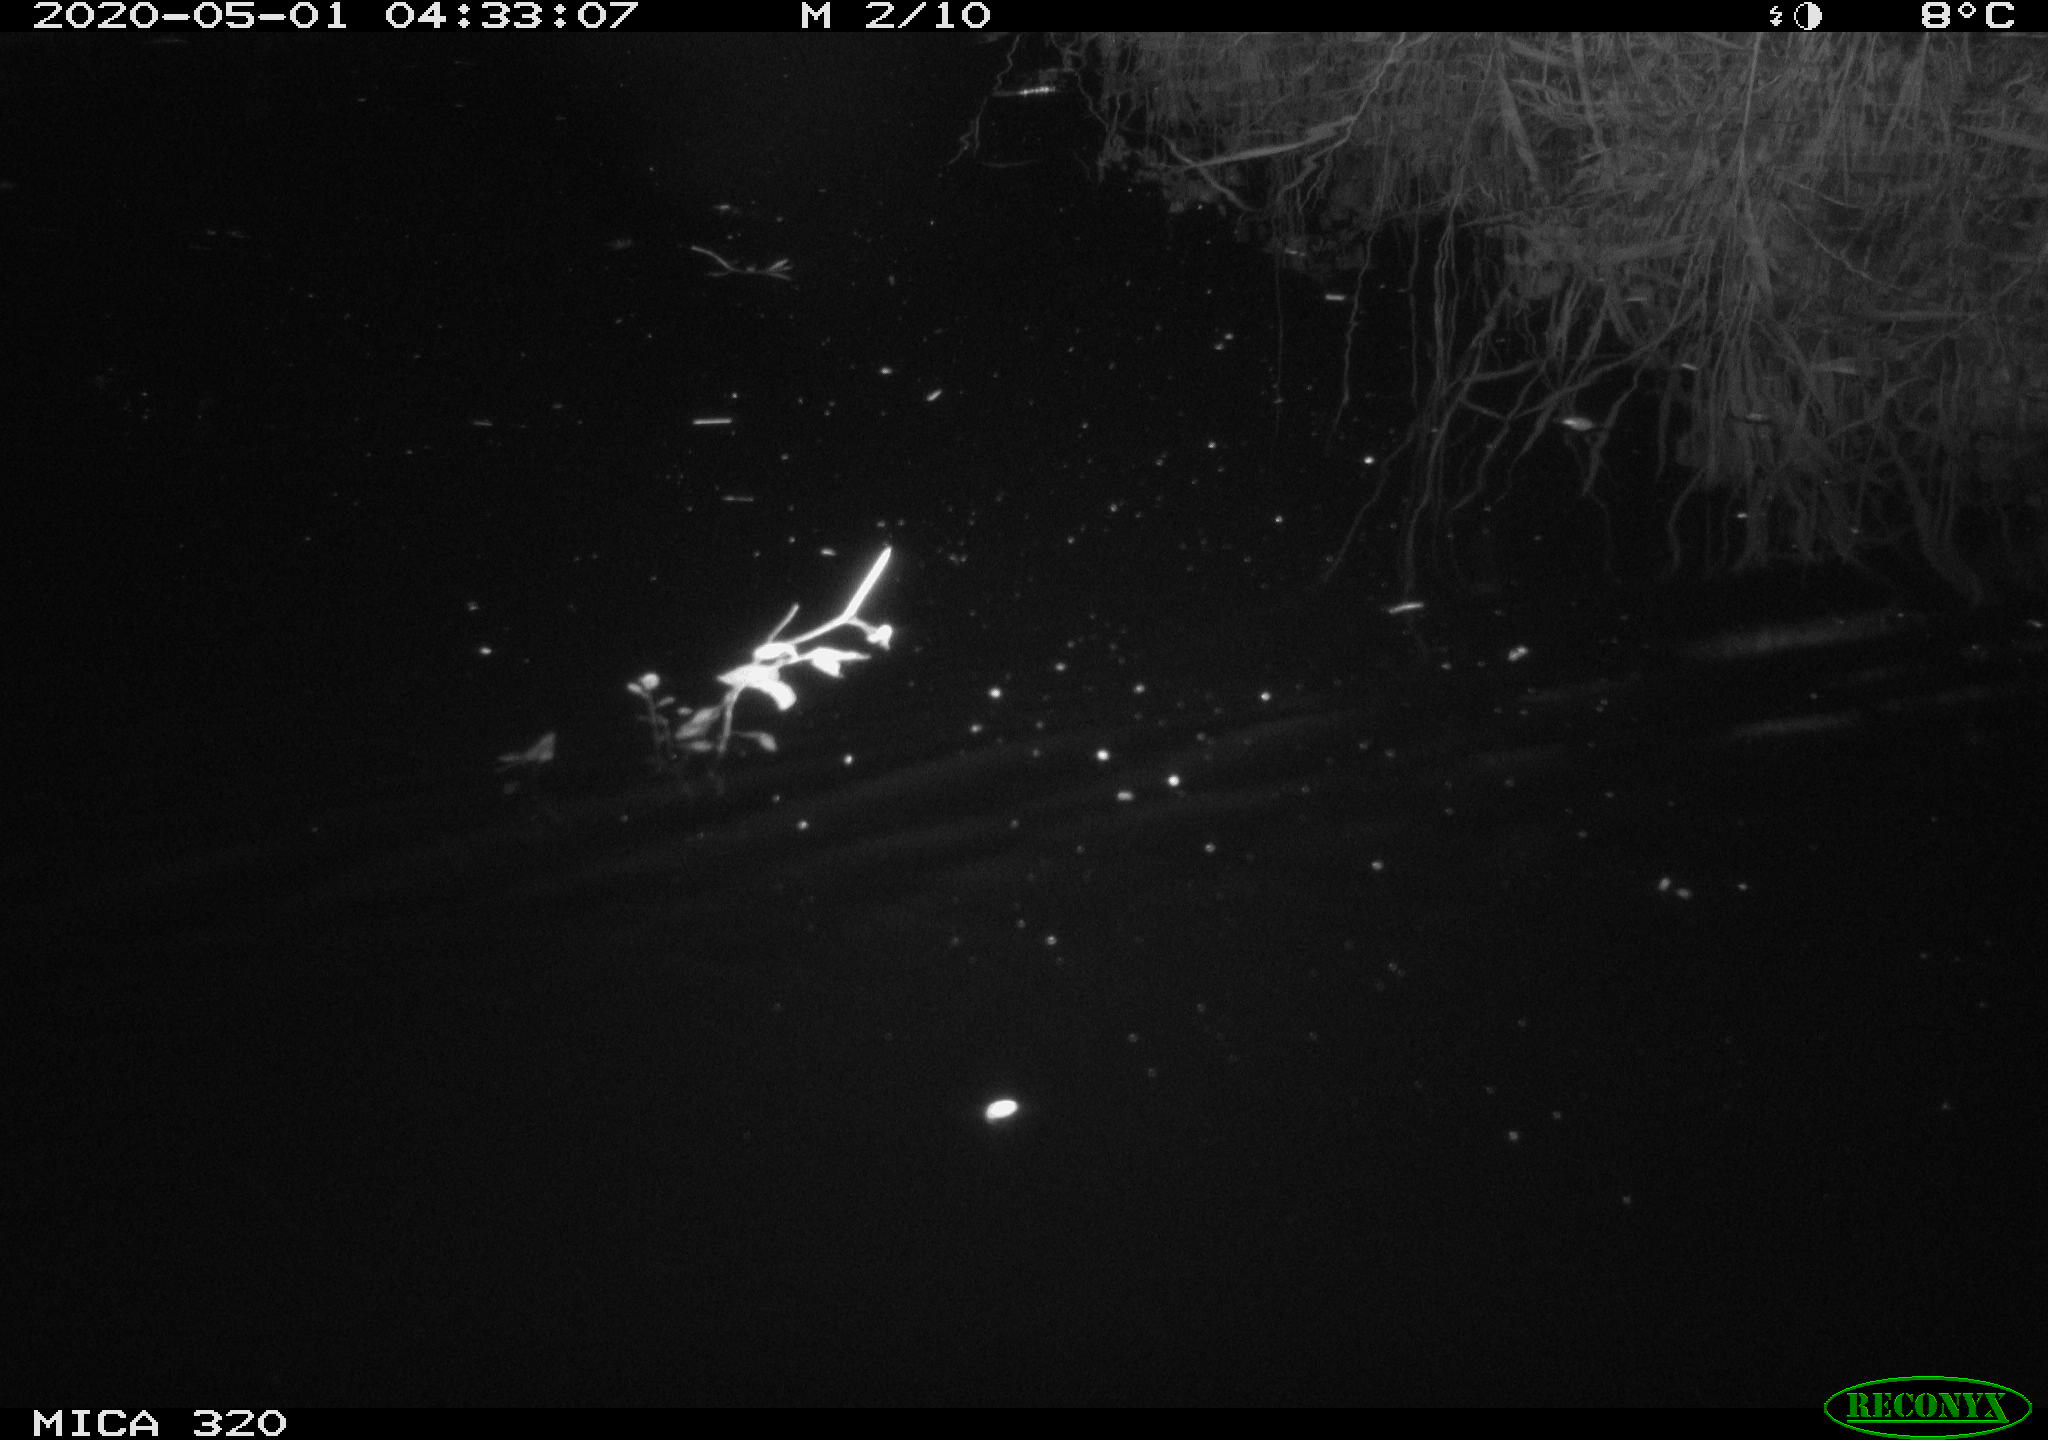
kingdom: Animalia
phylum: Chordata
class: Aves
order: Anseriformes
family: Anatidae
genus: Anas
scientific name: Anas platyrhynchos
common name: Mallard
